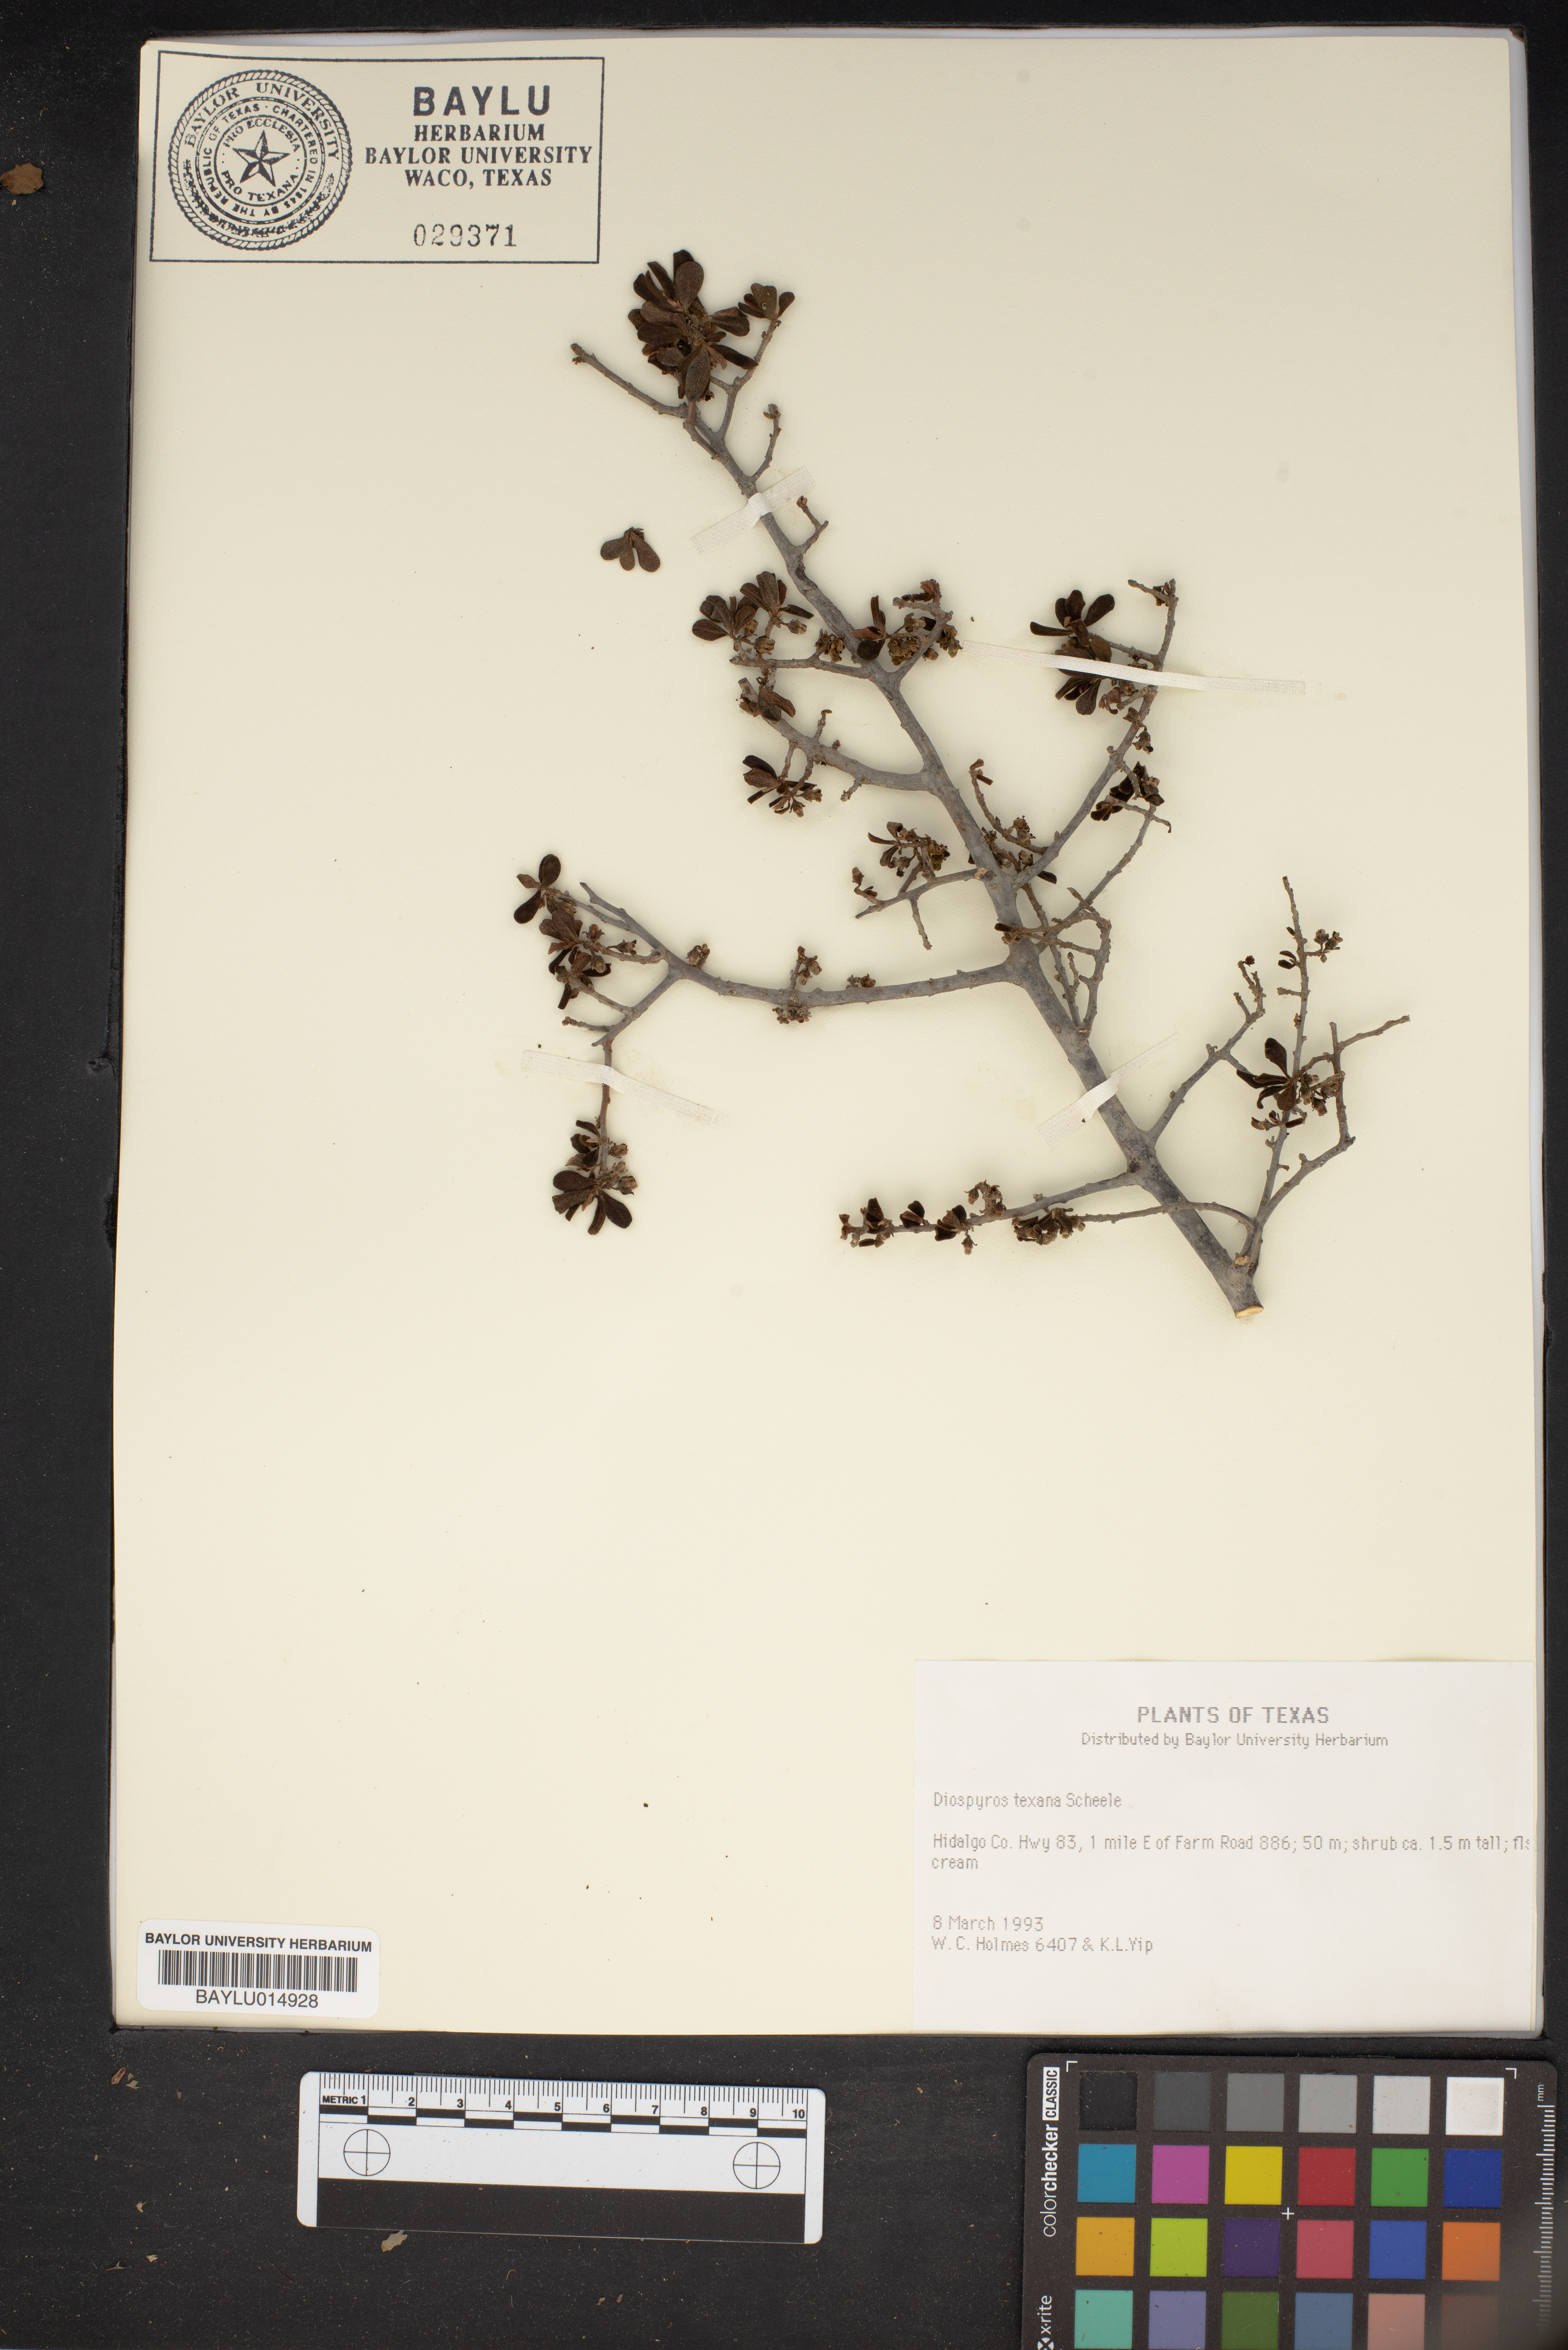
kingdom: Plantae
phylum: Tracheophyta
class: Magnoliopsida
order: Ericales
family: Ebenaceae
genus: Diospyros
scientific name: Diospyros texana
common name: Texas persimmon
